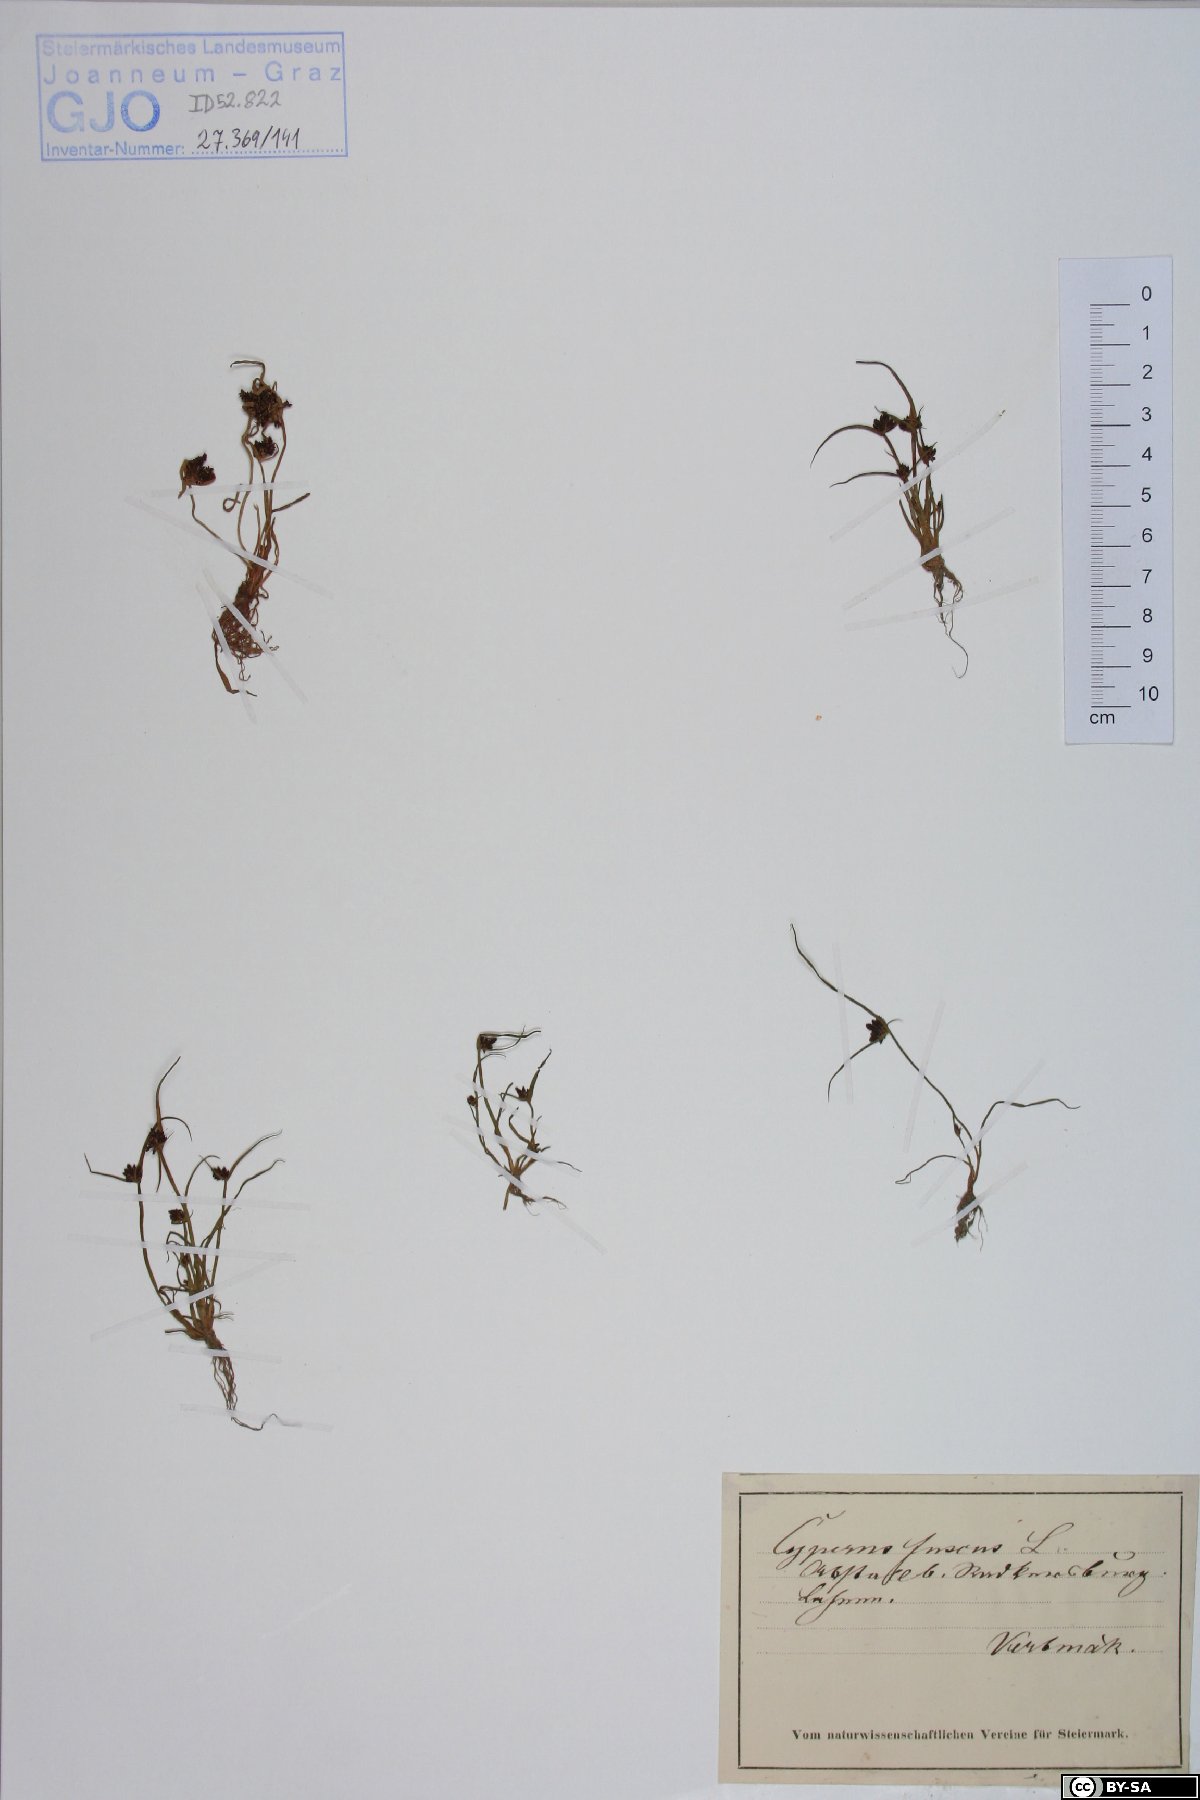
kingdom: Plantae
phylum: Tracheophyta
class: Liliopsida
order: Poales
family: Cyperaceae
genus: Cyperus
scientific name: Cyperus fuscus
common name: Brown galingale
